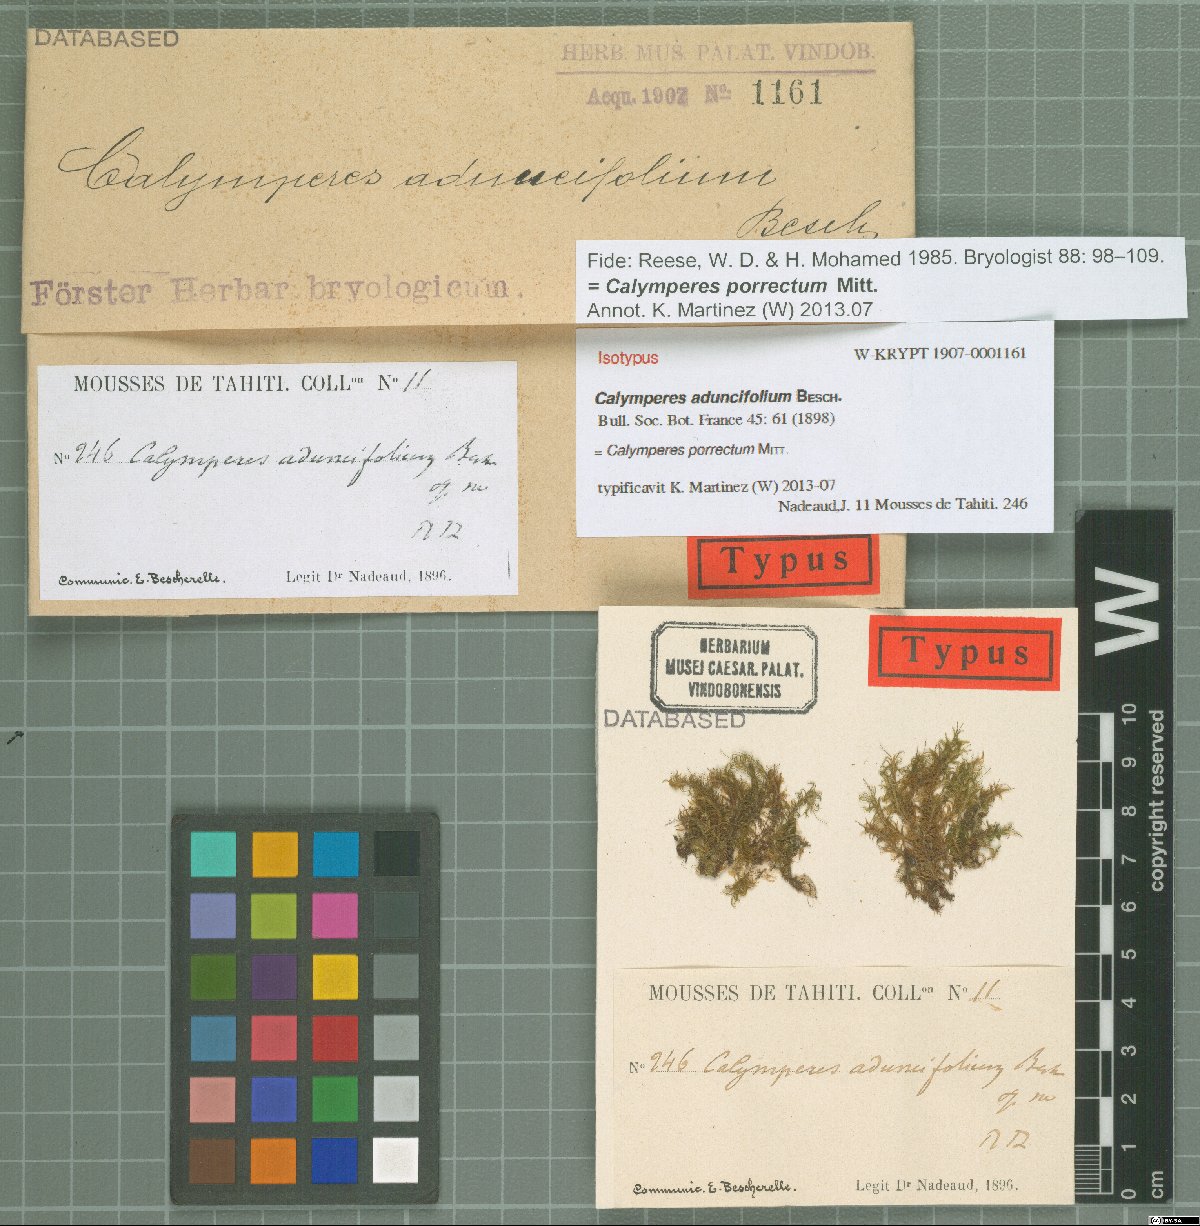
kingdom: Plantae
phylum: Bryophyta
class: Bryopsida
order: Dicranales
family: Calymperaceae
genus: Calymperes
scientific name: Calymperes porrectum
